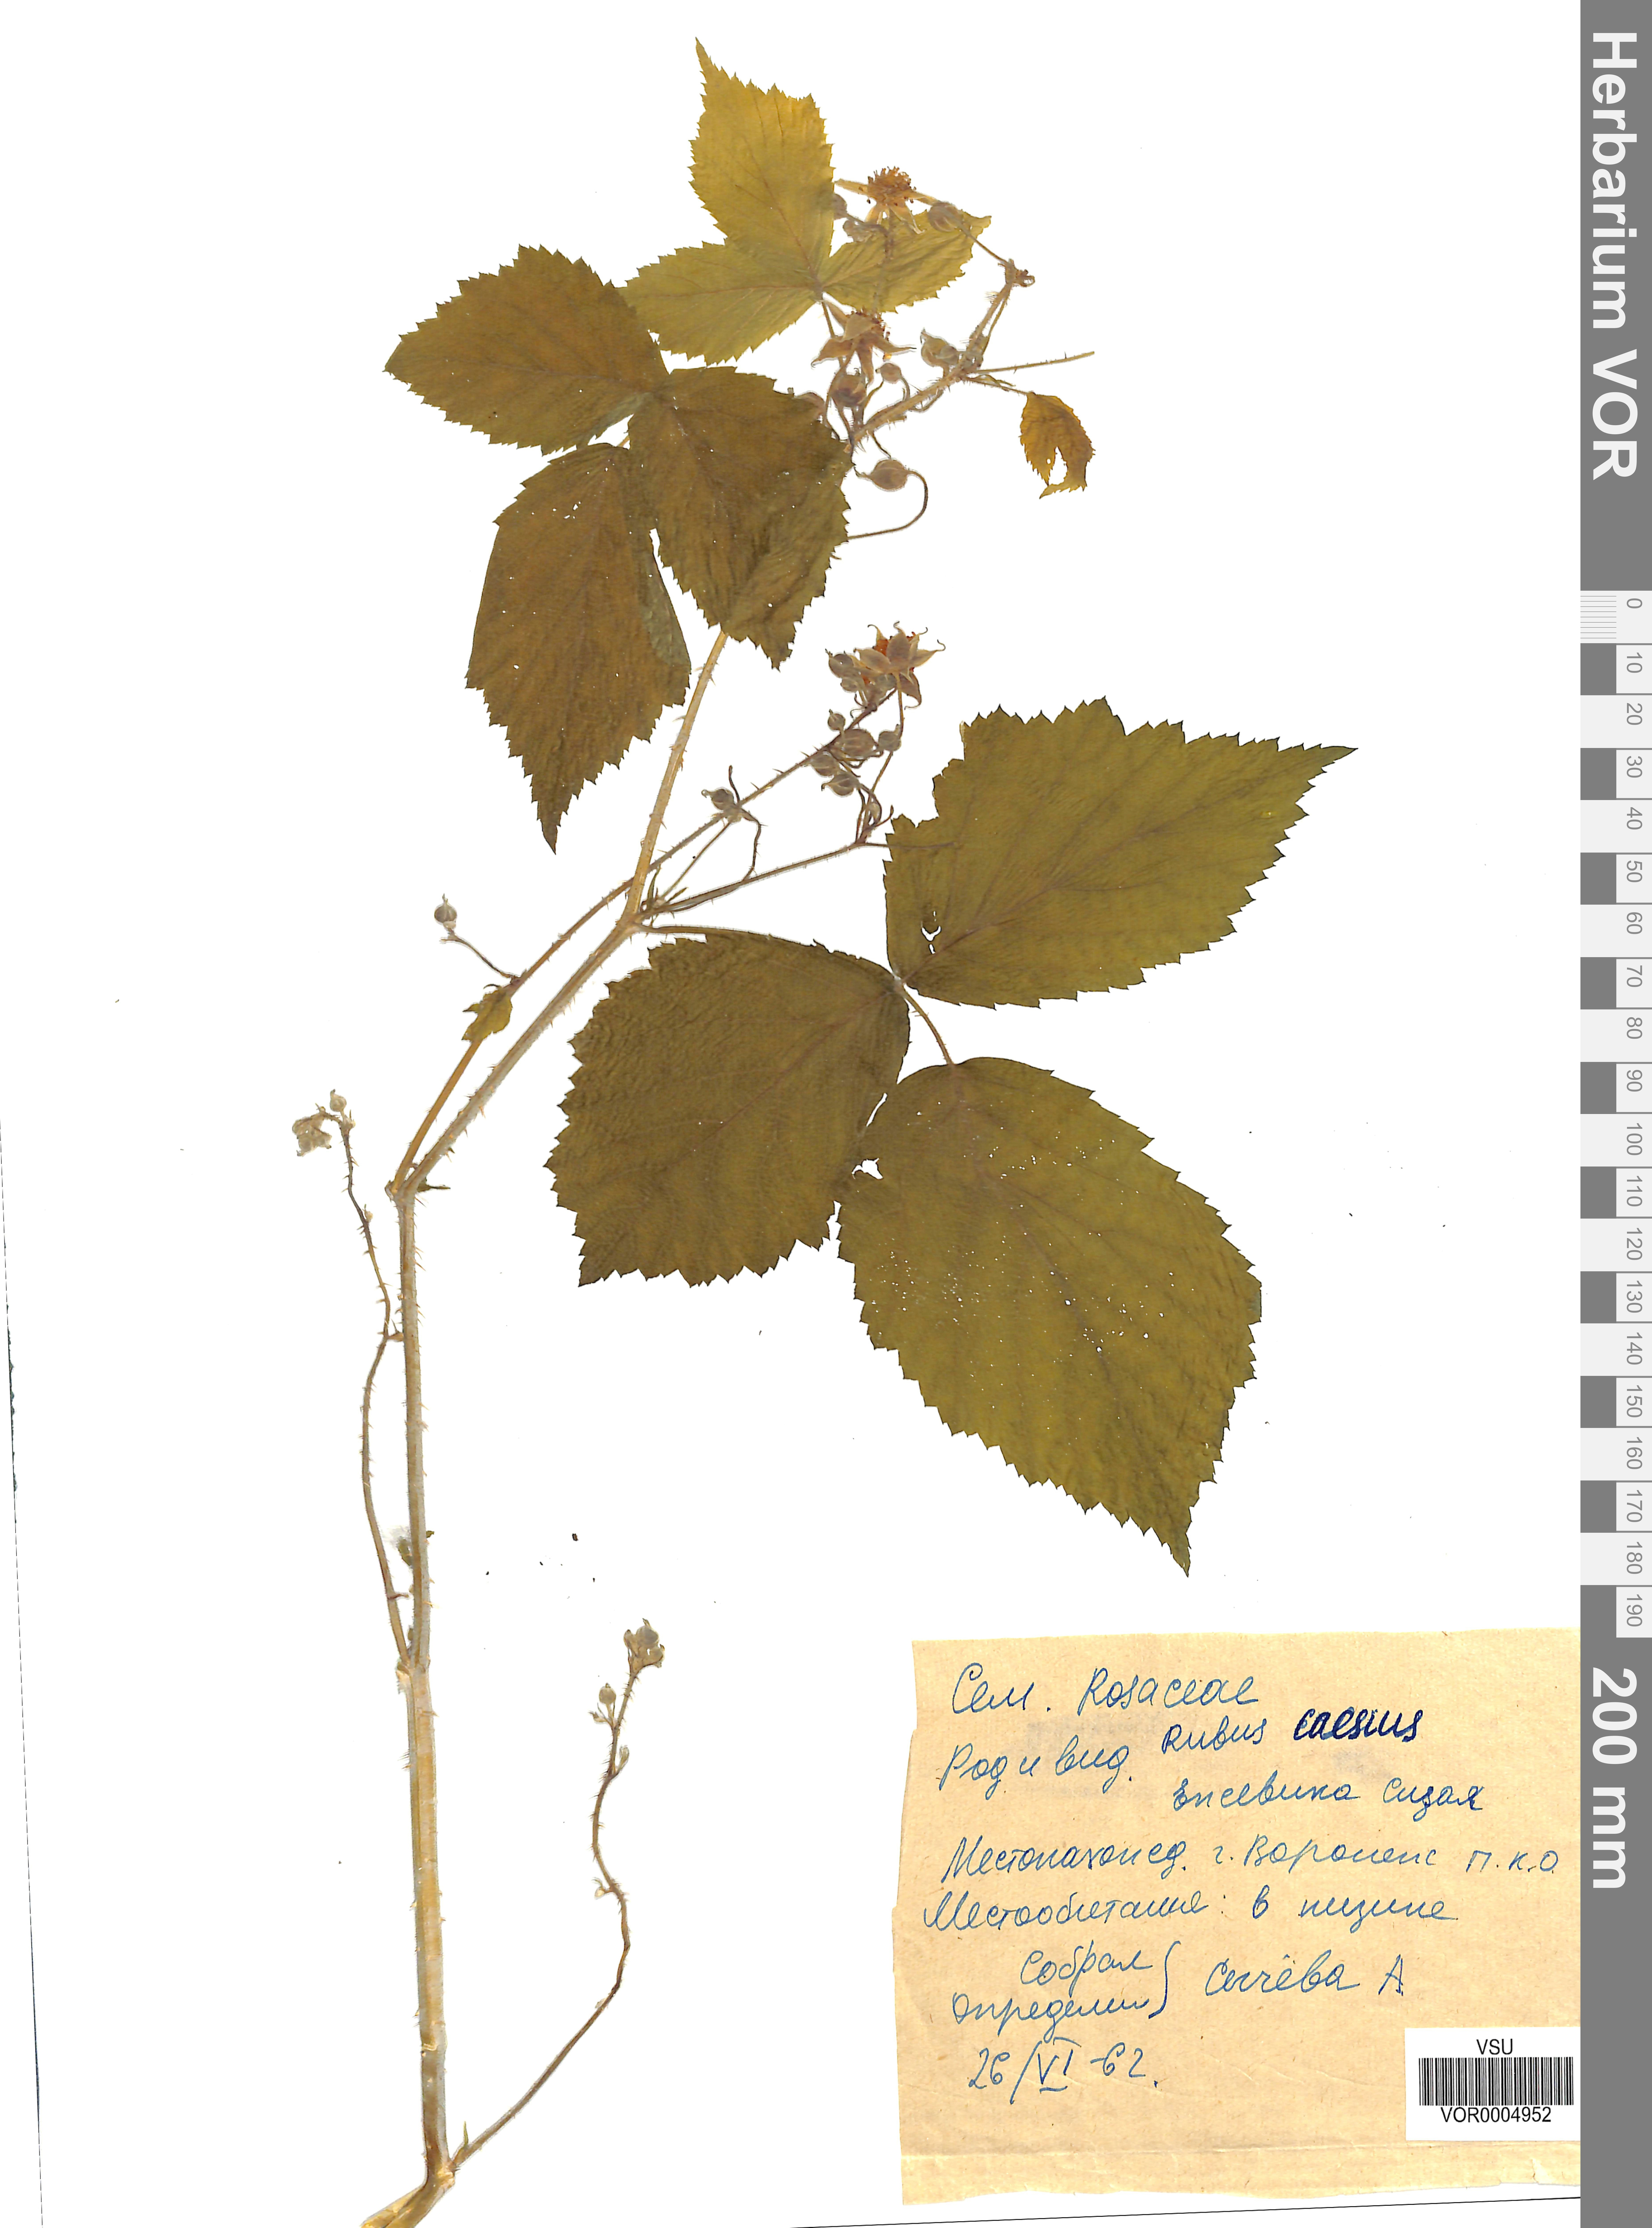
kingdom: Plantae
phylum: Tracheophyta
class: Magnoliopsida
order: Rosales
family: Rosaceae
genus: Rubus
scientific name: Rubus caesius
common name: Dewberry
